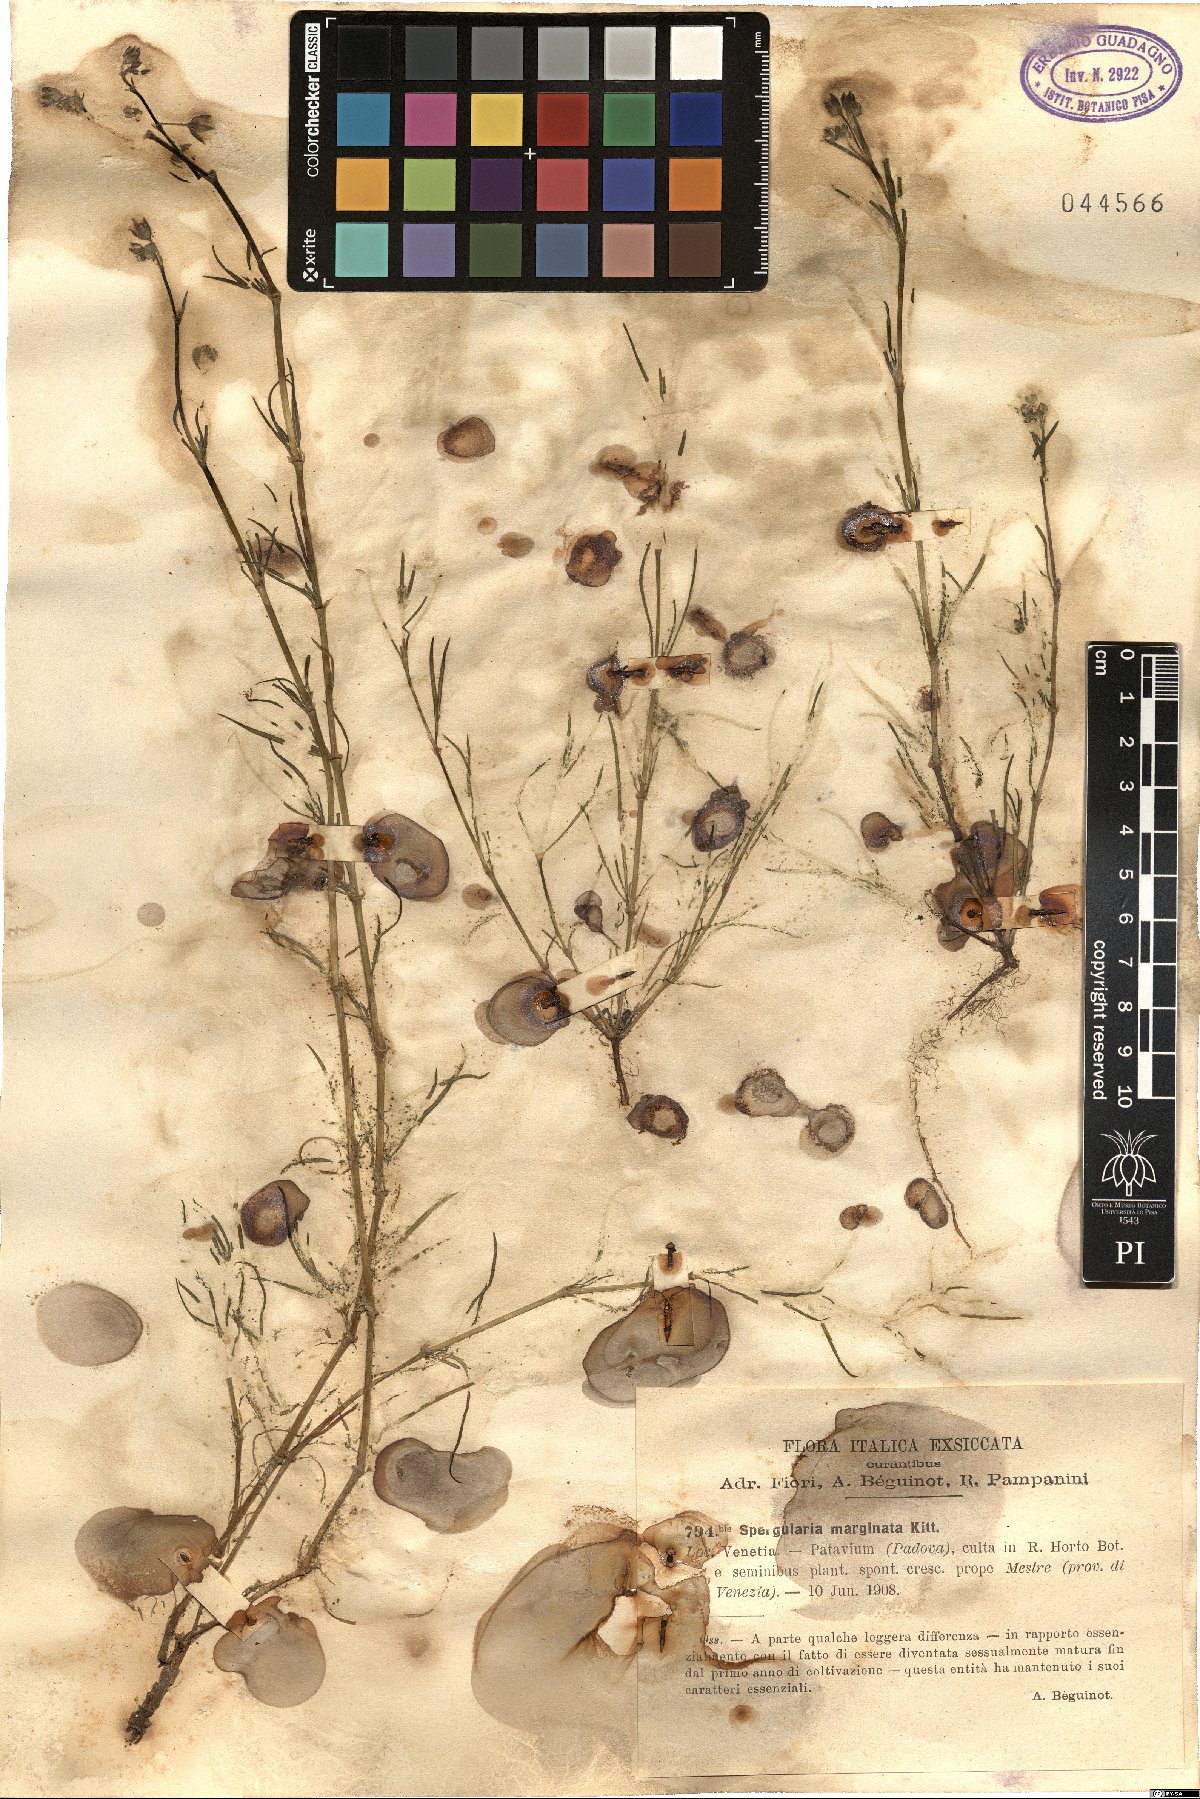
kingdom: Plantae
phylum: Tracheophyta
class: Magnoliopsida
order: Caryophyllales
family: Caryophyllaceae
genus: Spergularia
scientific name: Spergularia media
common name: Greater sea-spurrey
